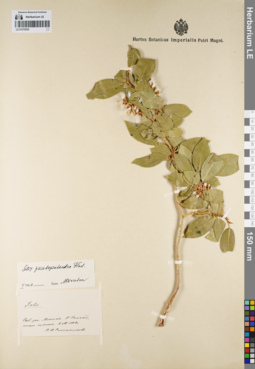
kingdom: Plantae
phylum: Tracheophyta
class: Magnoliopsida
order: Malpighiales
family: Salicaceae
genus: Salix
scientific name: Salix pseudopentandra
